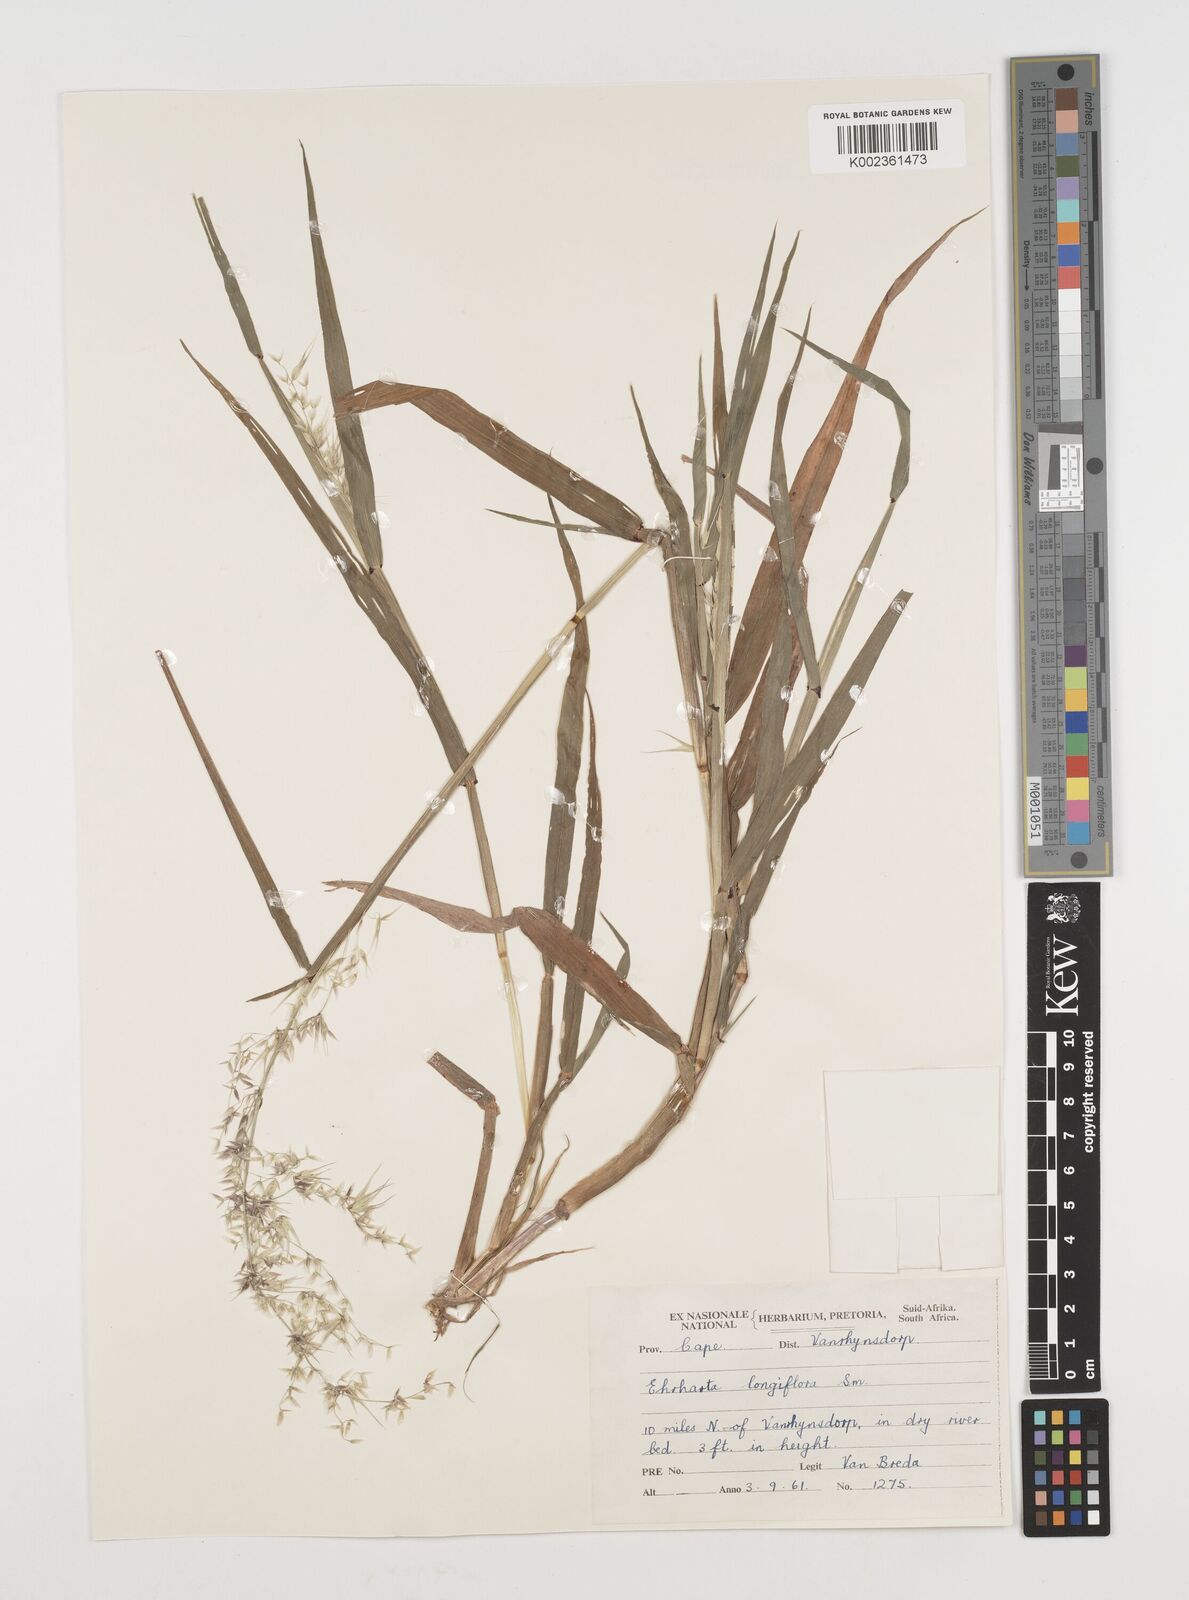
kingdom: Plantae
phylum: Tracheophyta
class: Liliopsida
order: Poales
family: Poaceae
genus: Ehrharta
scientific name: Ehrharta longiflora
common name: Longflowered veldtgrass
